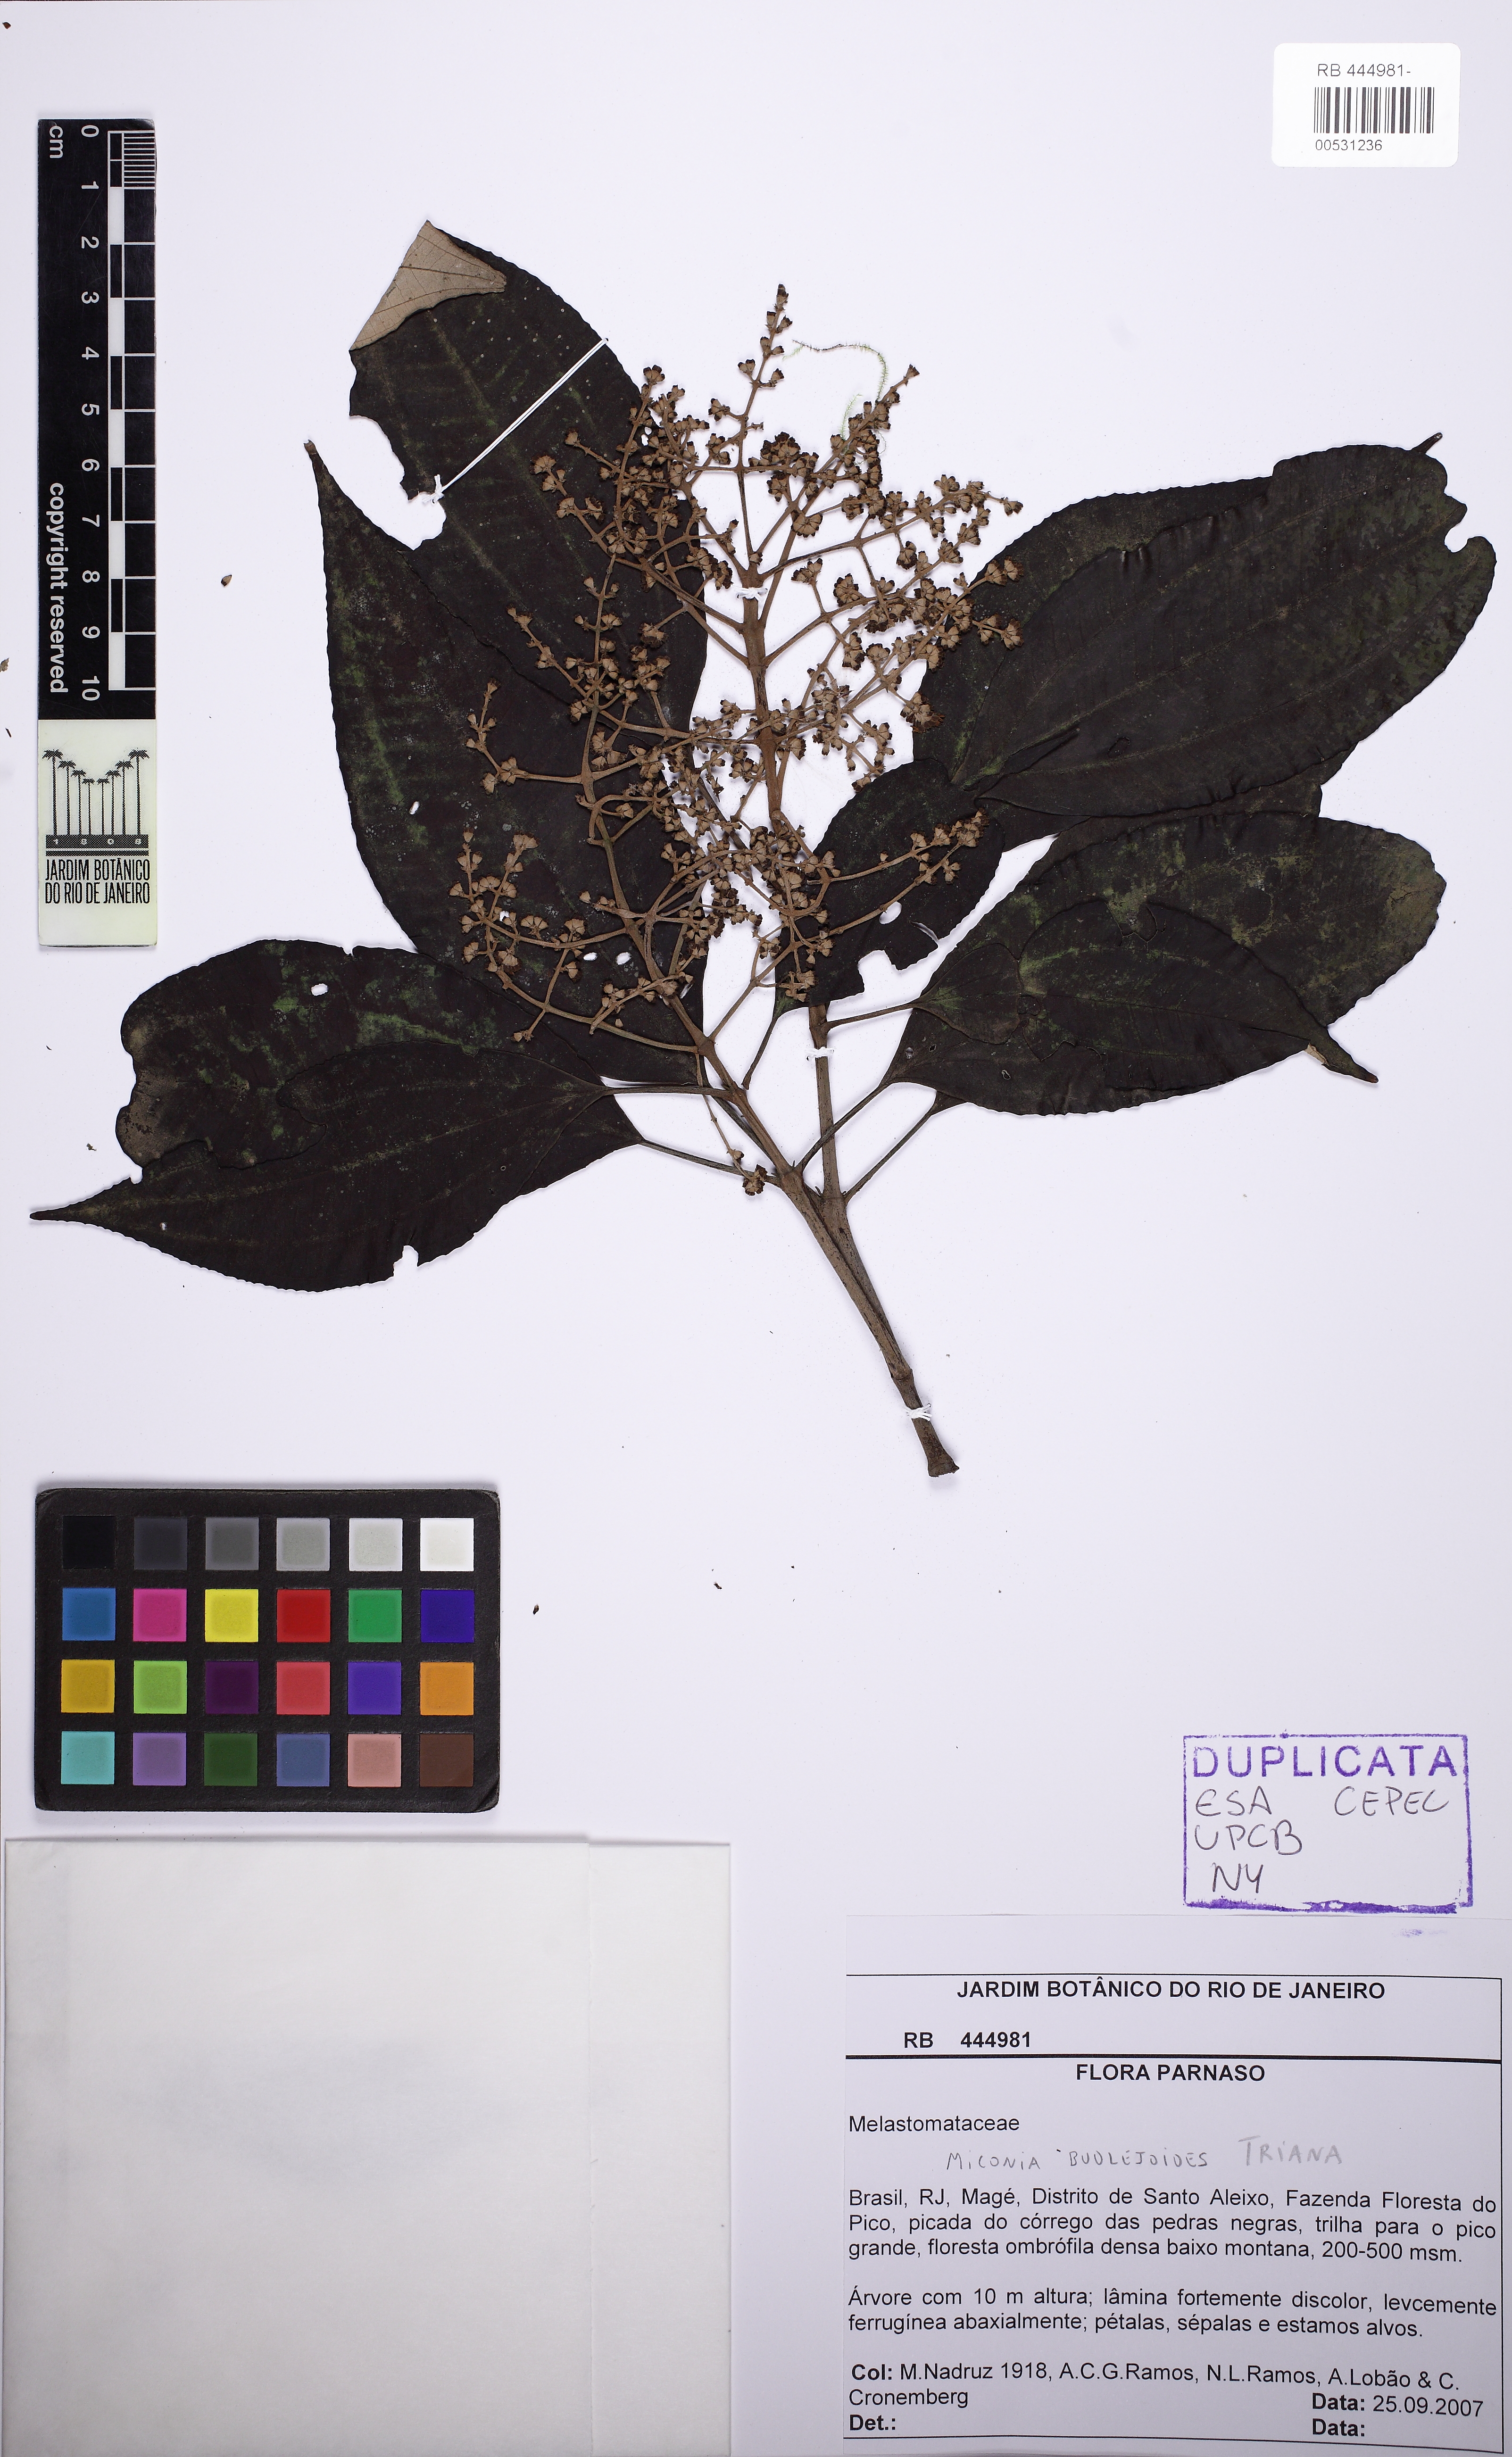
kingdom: Plantae
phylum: Tracheophyta
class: Magnoliopsida
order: Myrtales
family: Melastomataceae
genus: Miconia
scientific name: Miconia goldenbergiana
